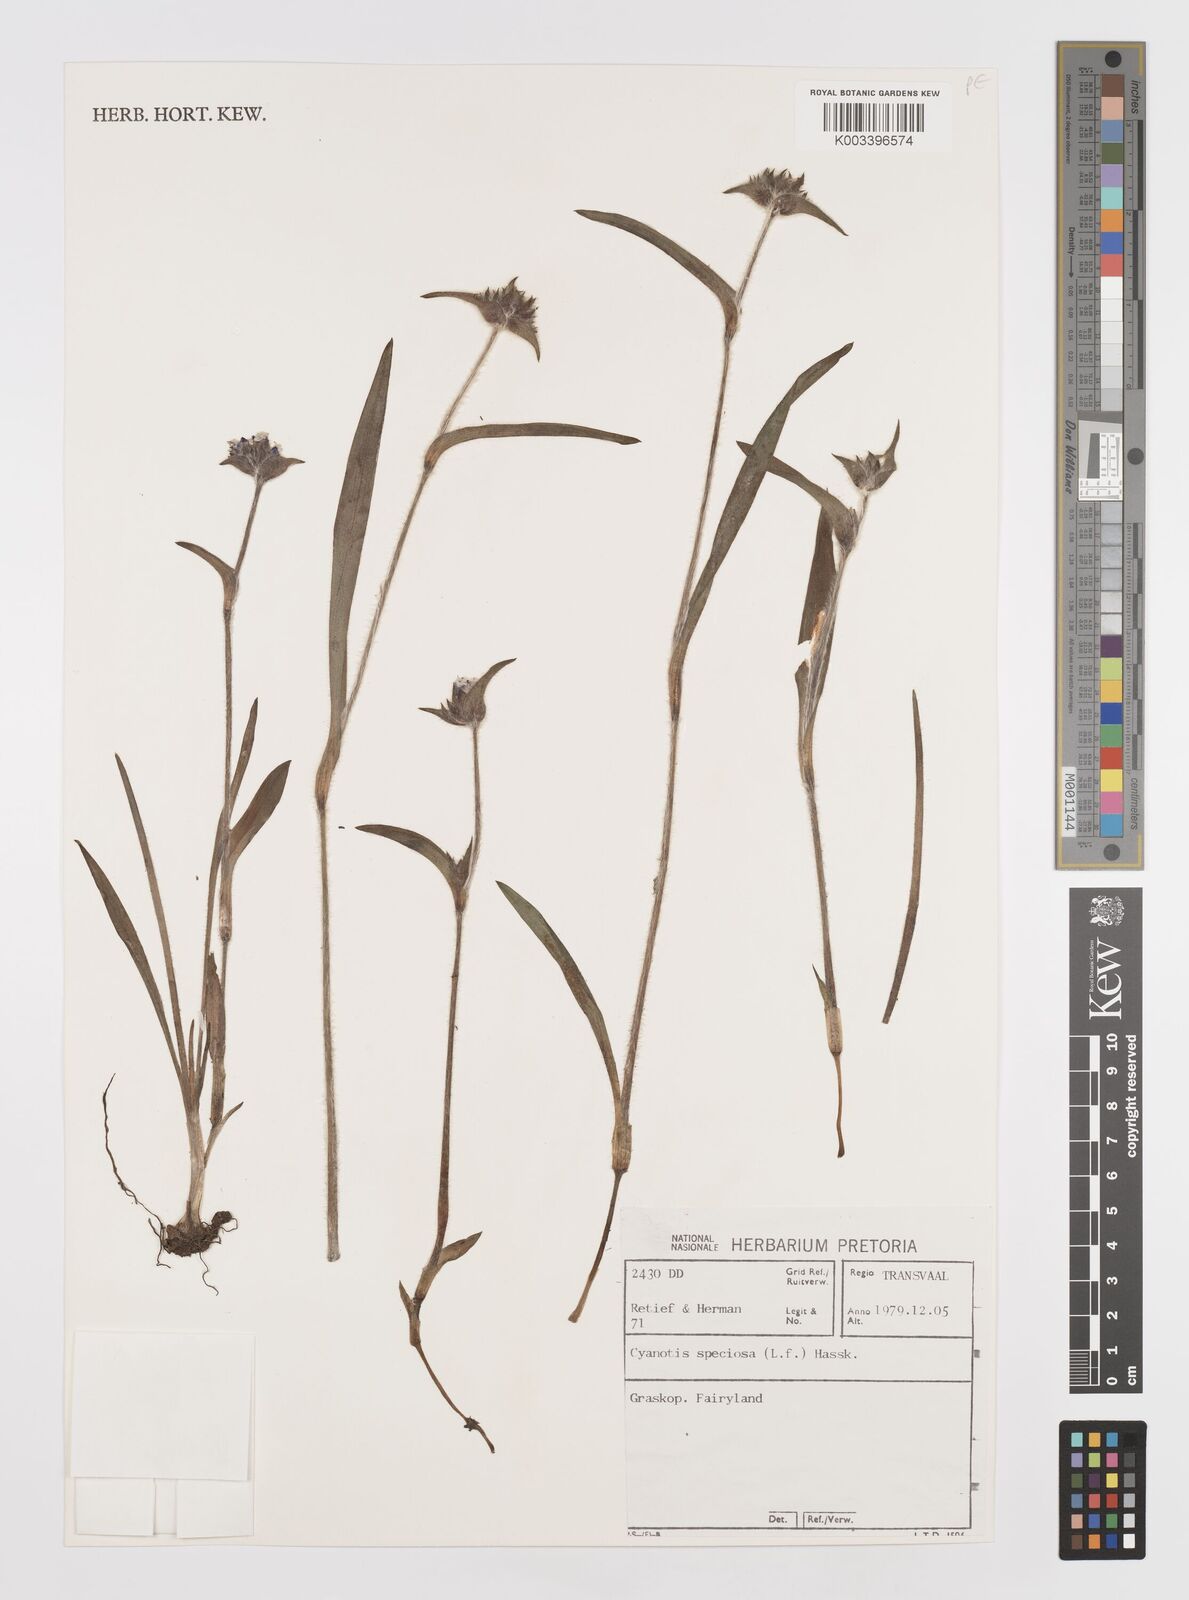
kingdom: Plantae
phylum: Tracheophyta
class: Liliopsida
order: Commelinales
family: Commelinaceae
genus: Cyanotis
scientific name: Cyanotis speciosa
